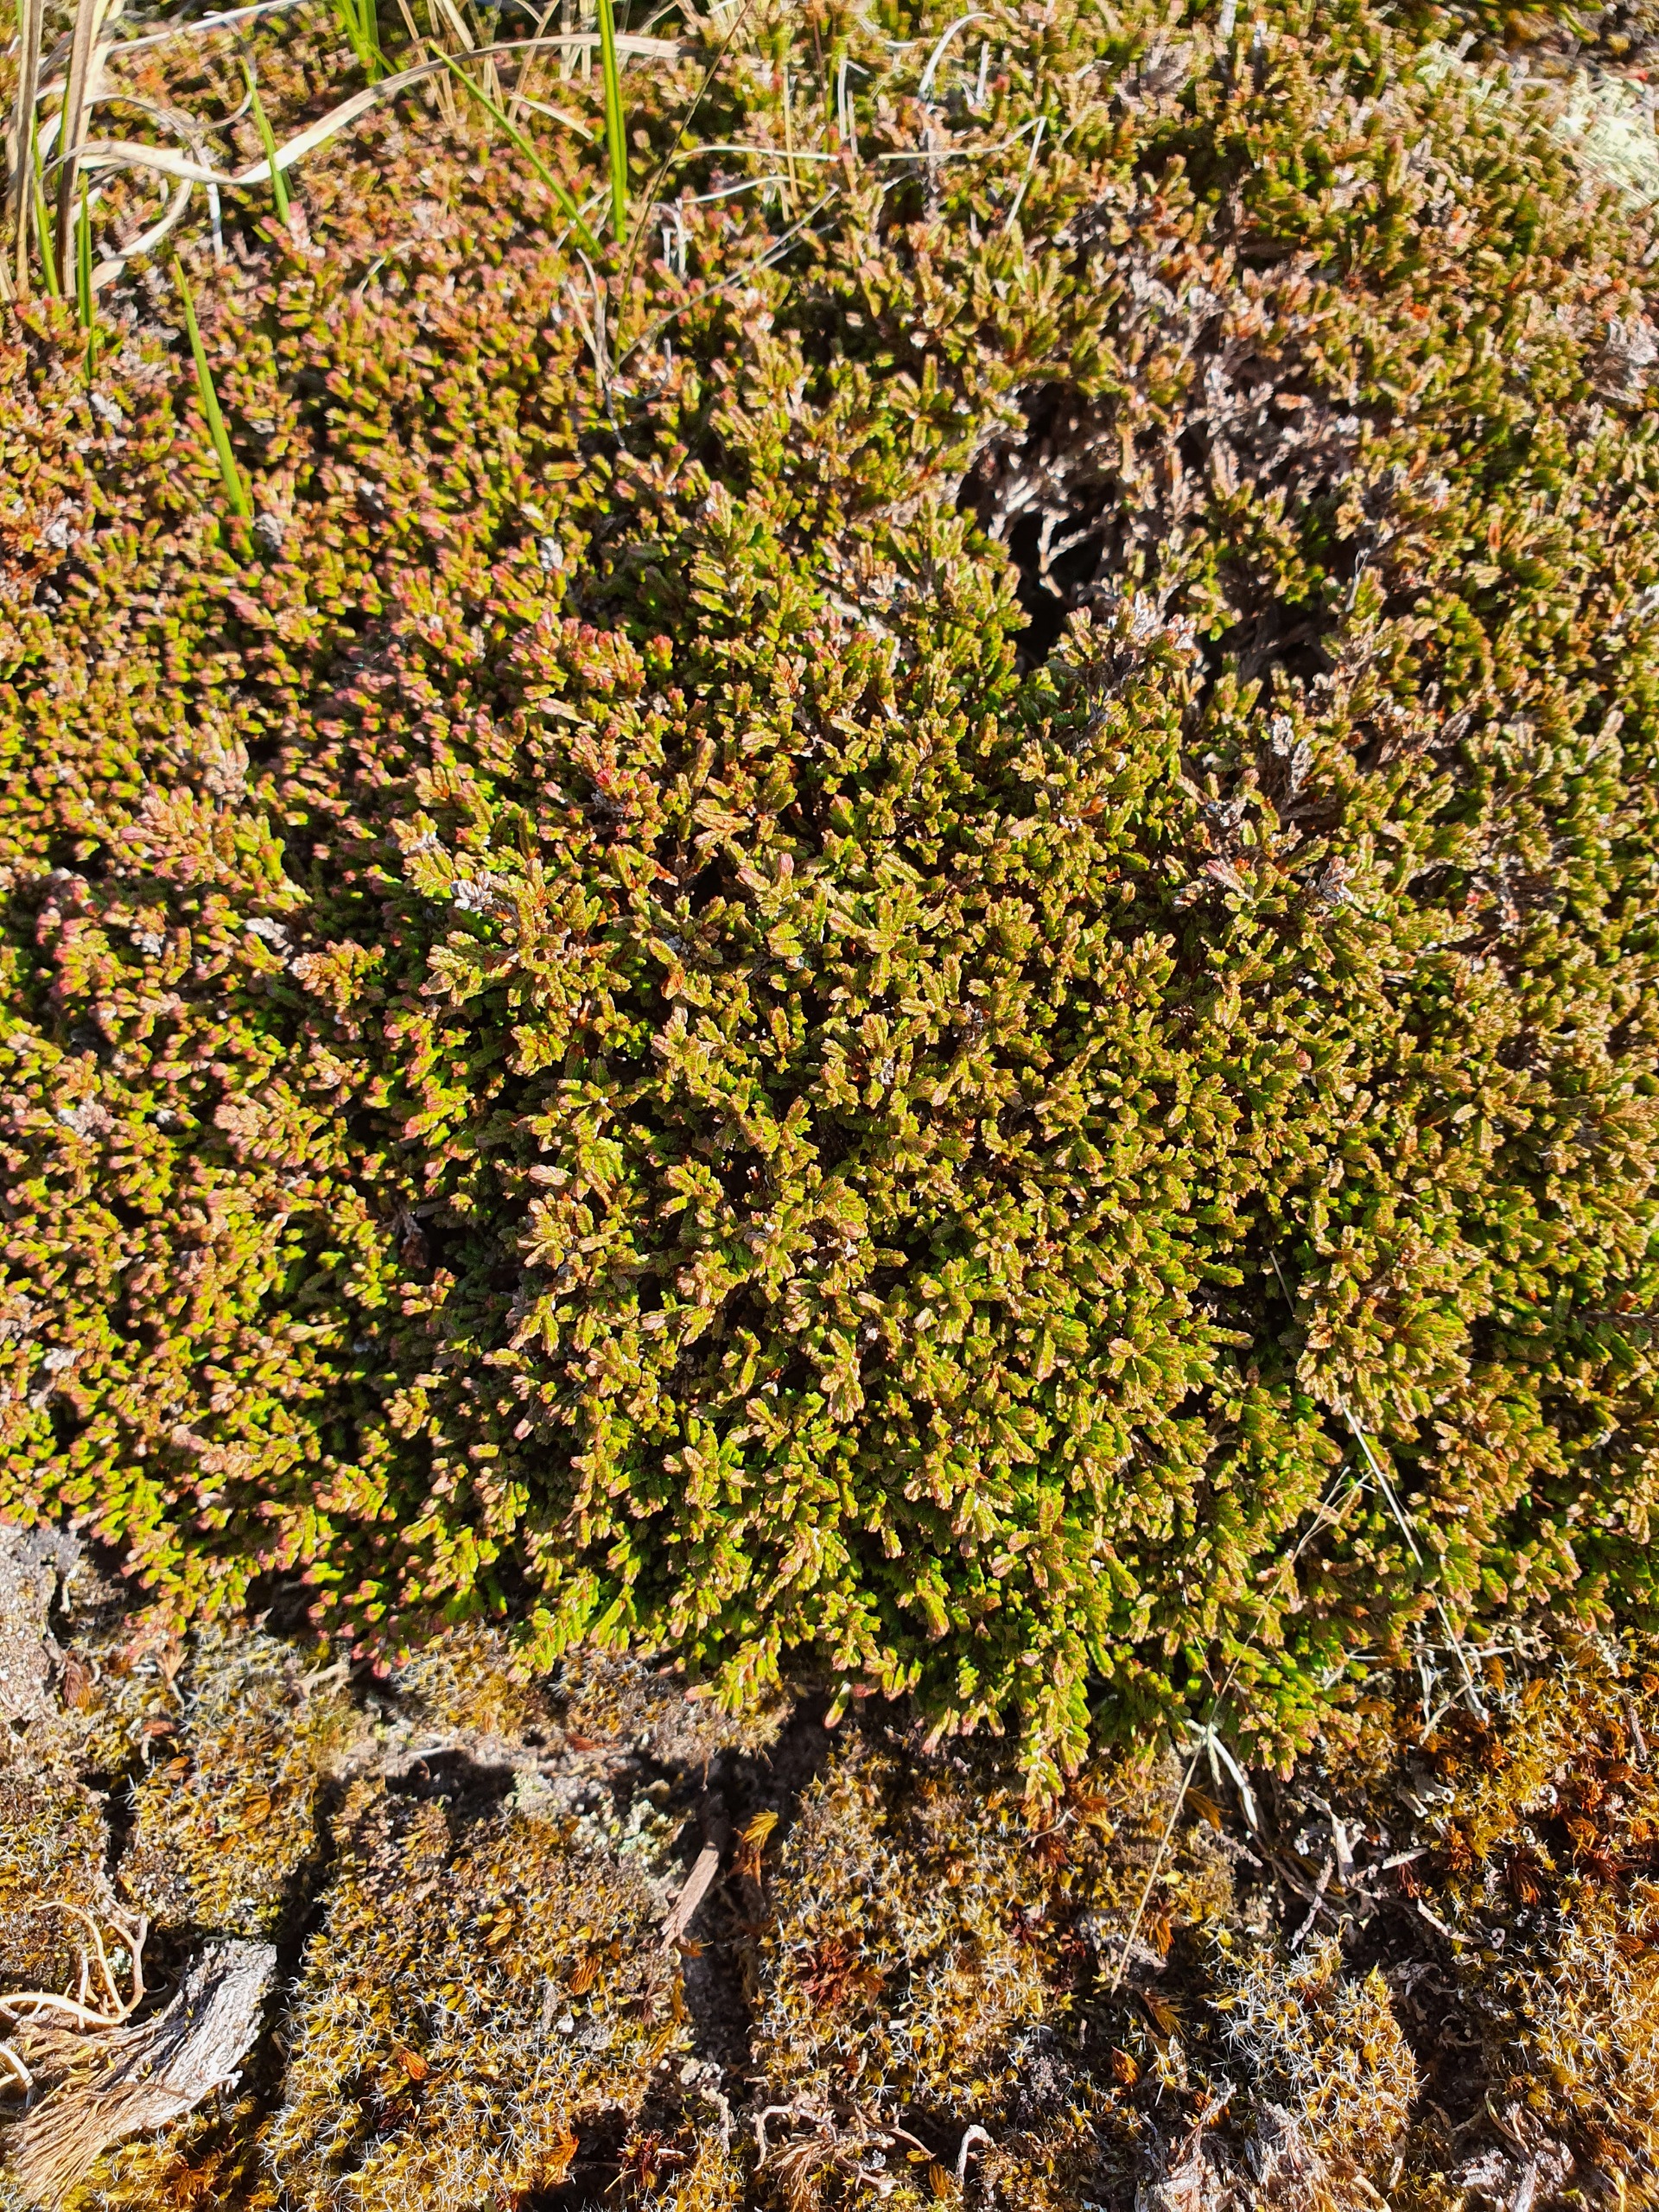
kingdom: Plantae
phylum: Tracheophyta
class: Magnoliopsida
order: Ericales
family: Ericaceae
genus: Calluna
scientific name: Calluna vulgaris
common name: Hedelyng
